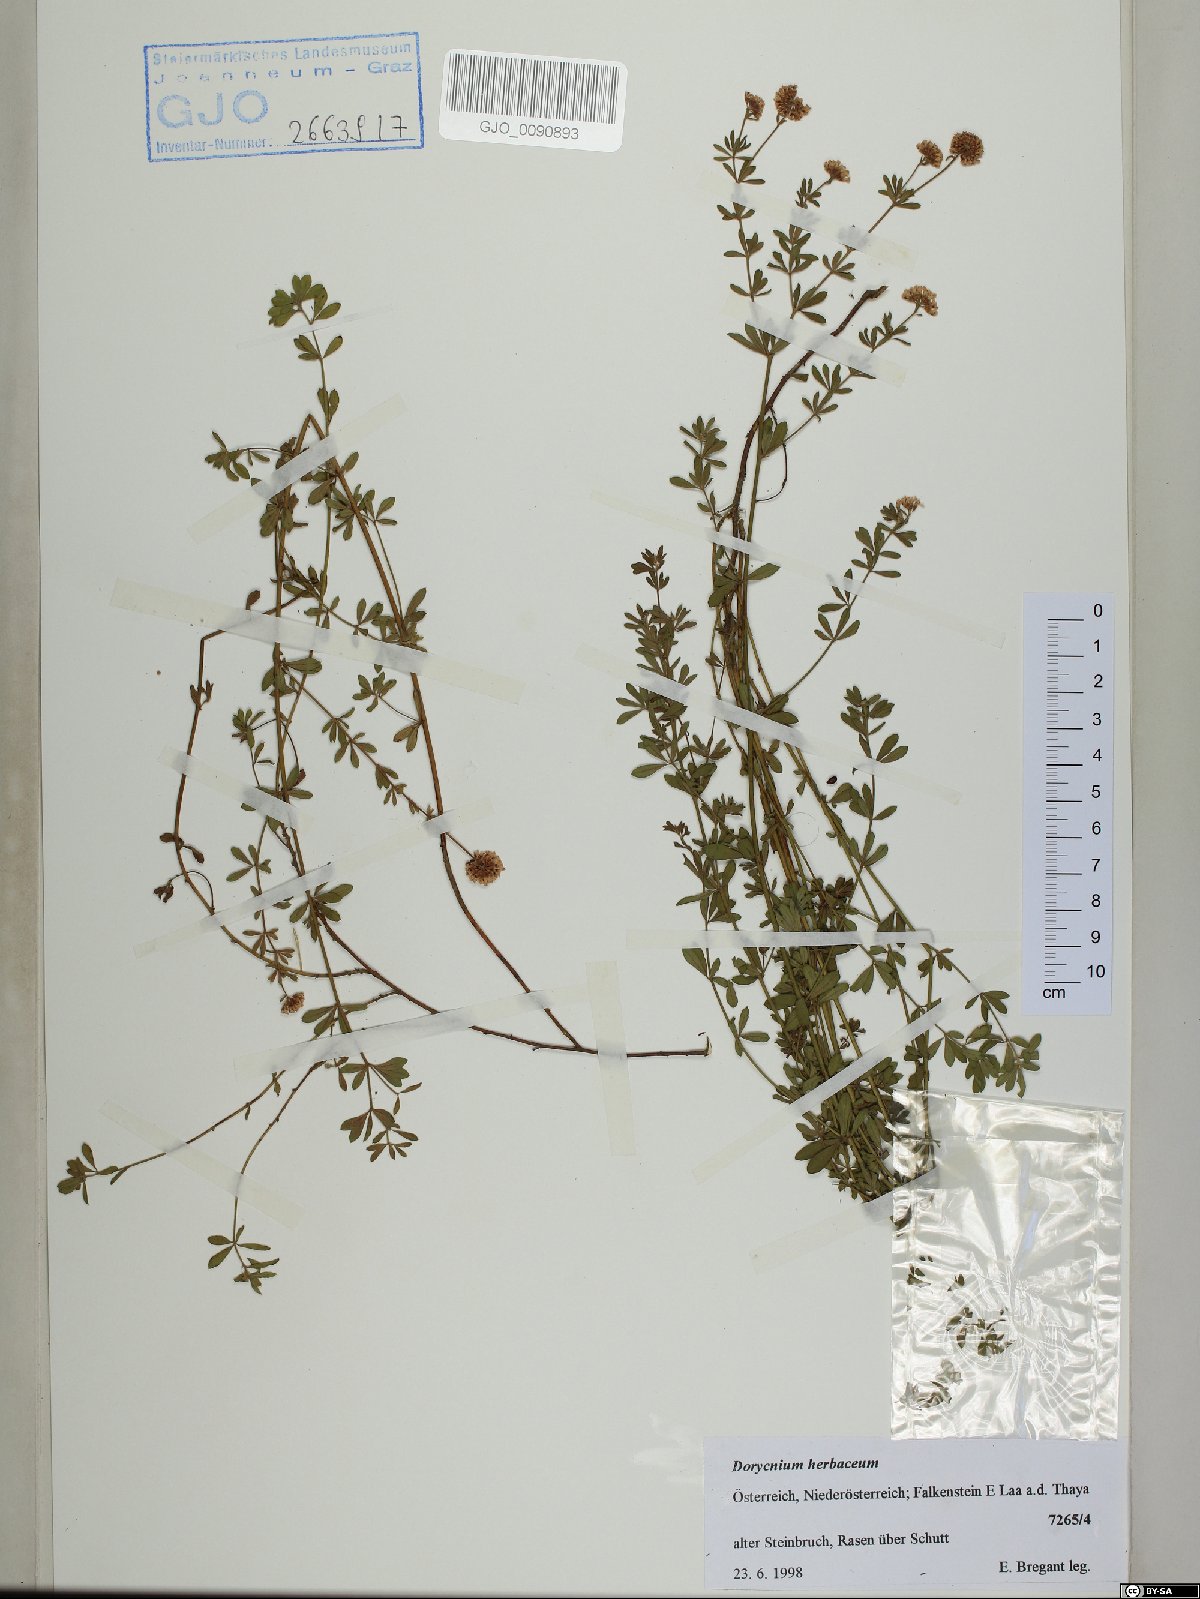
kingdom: Plantae
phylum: Tracheophyta
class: Magnoliopsida
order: Fabales
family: Fabaceae
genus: Lotus
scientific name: Lotus herbaceus
